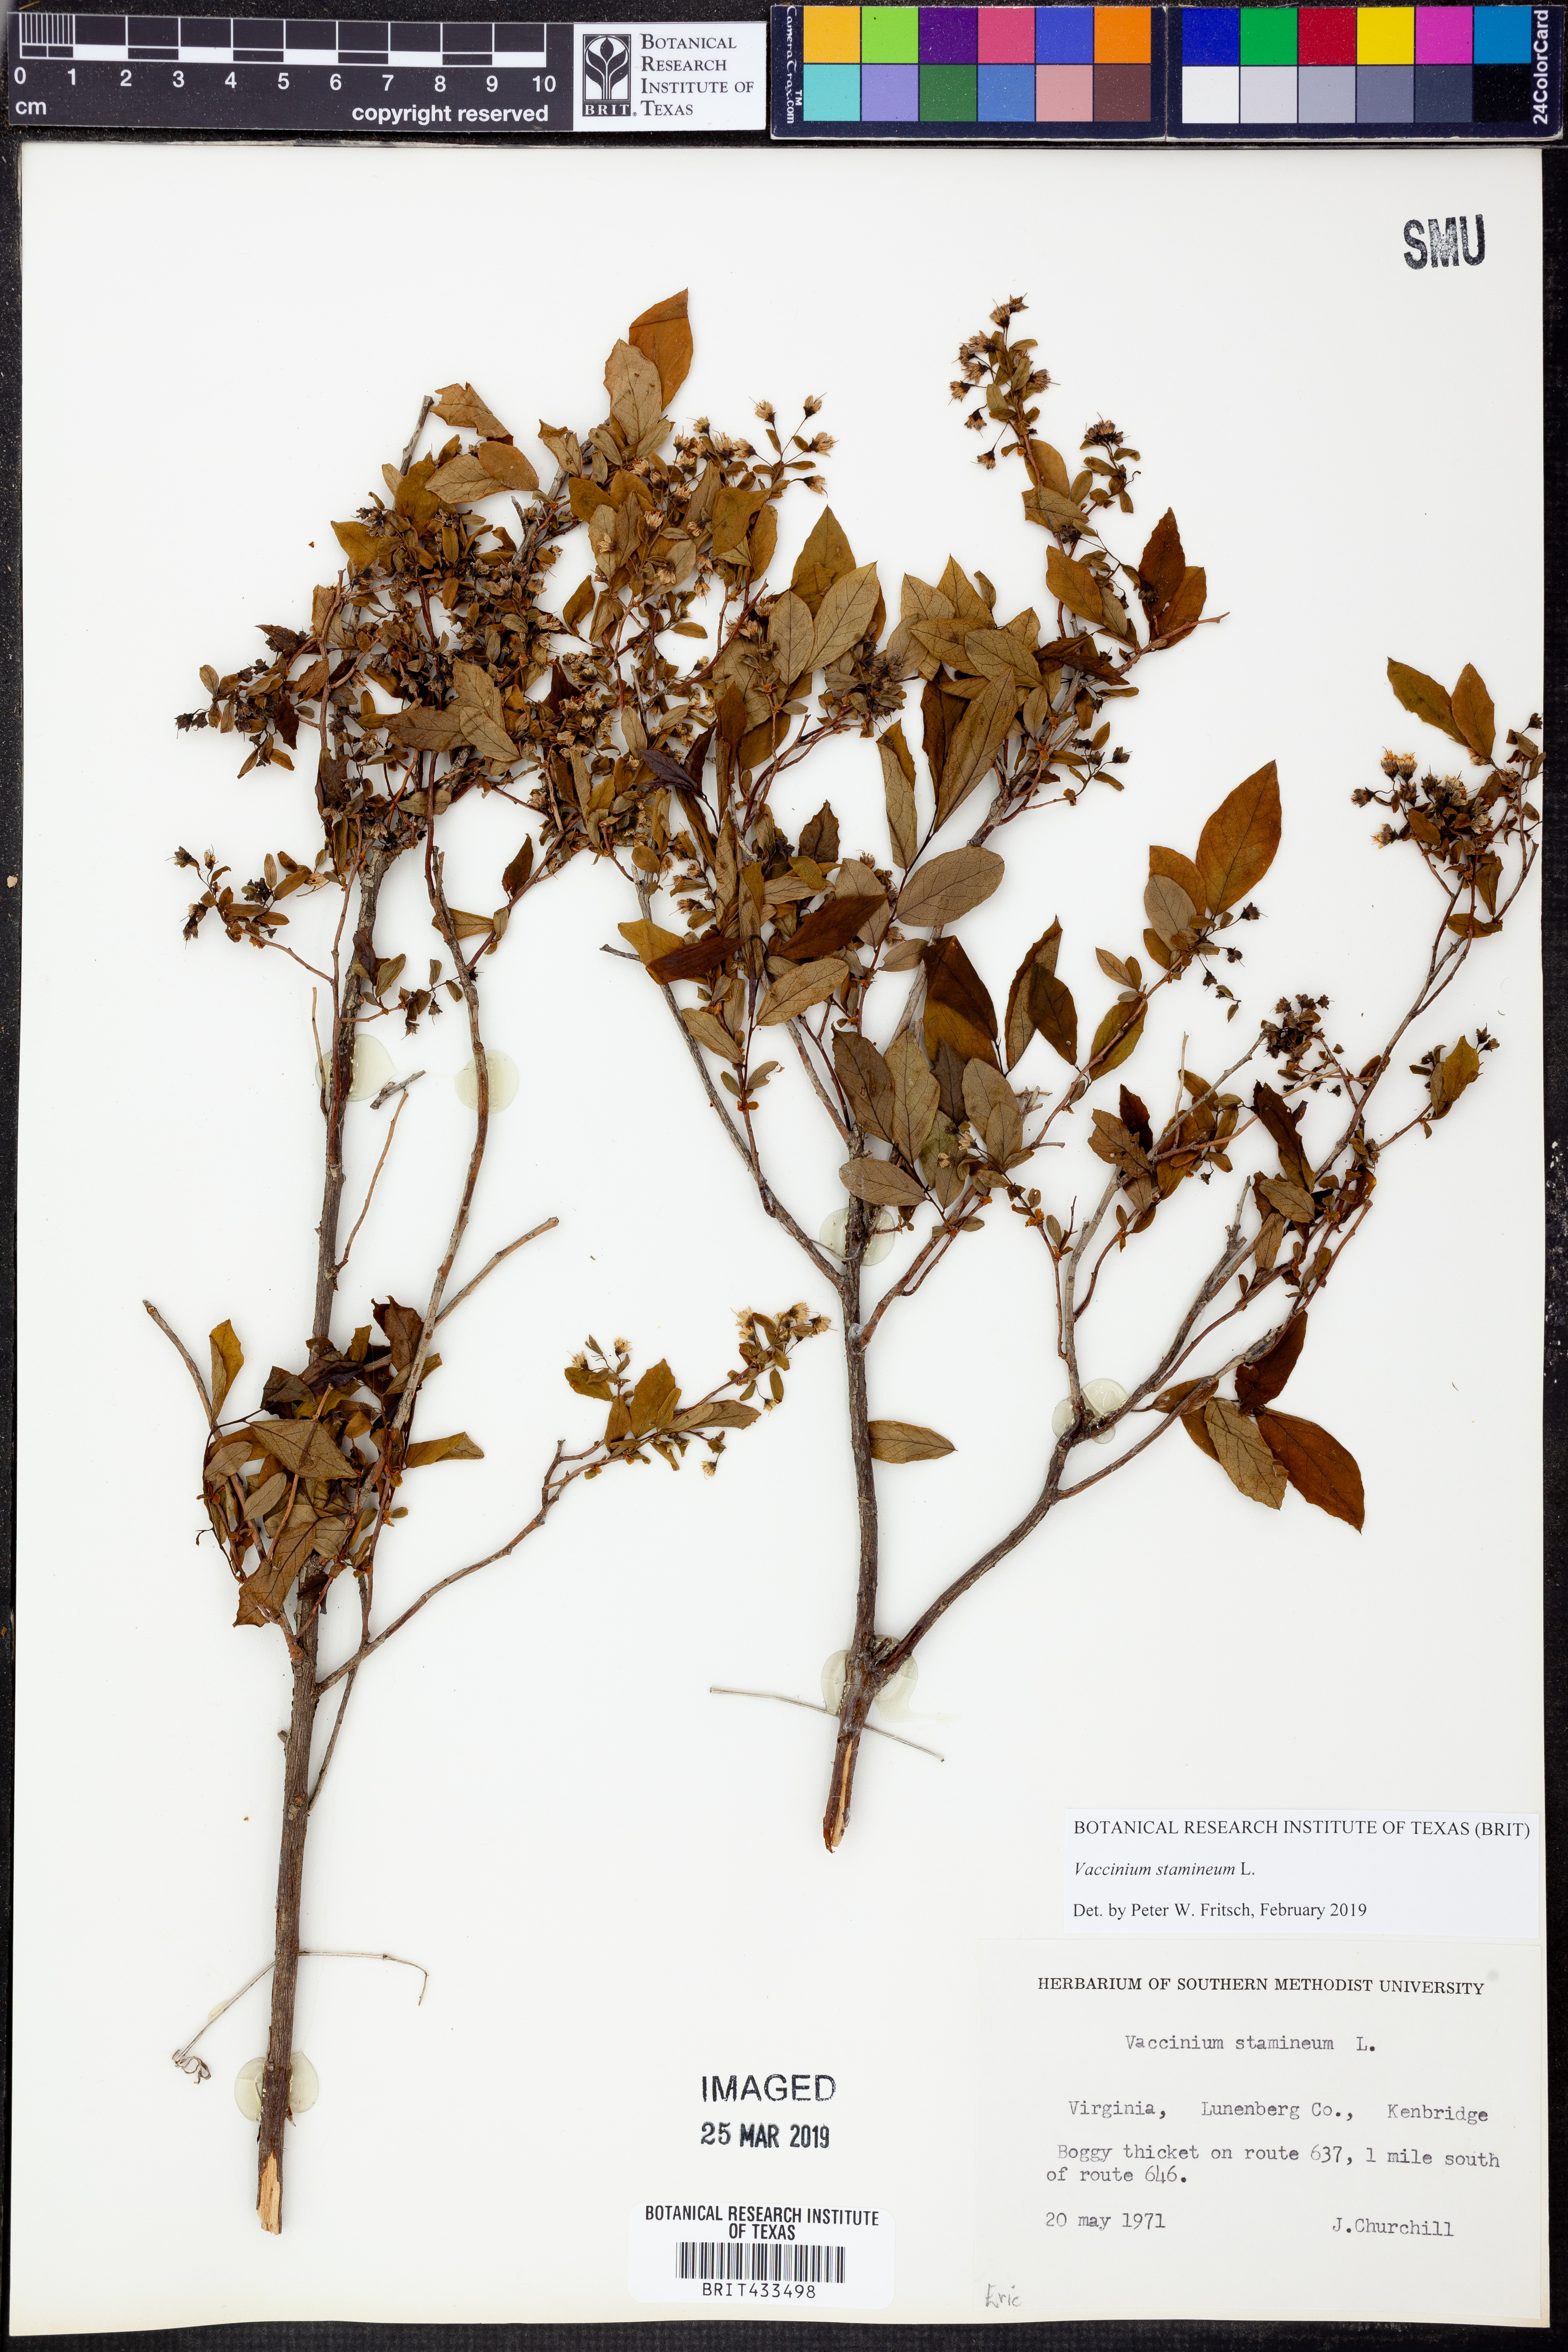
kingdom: Plantae
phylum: Tracheophyta
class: Magnoliopsida
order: Ericales
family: Ericaceae
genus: Vaccinium
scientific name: Vaccinium stamineum
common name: Deerberry
